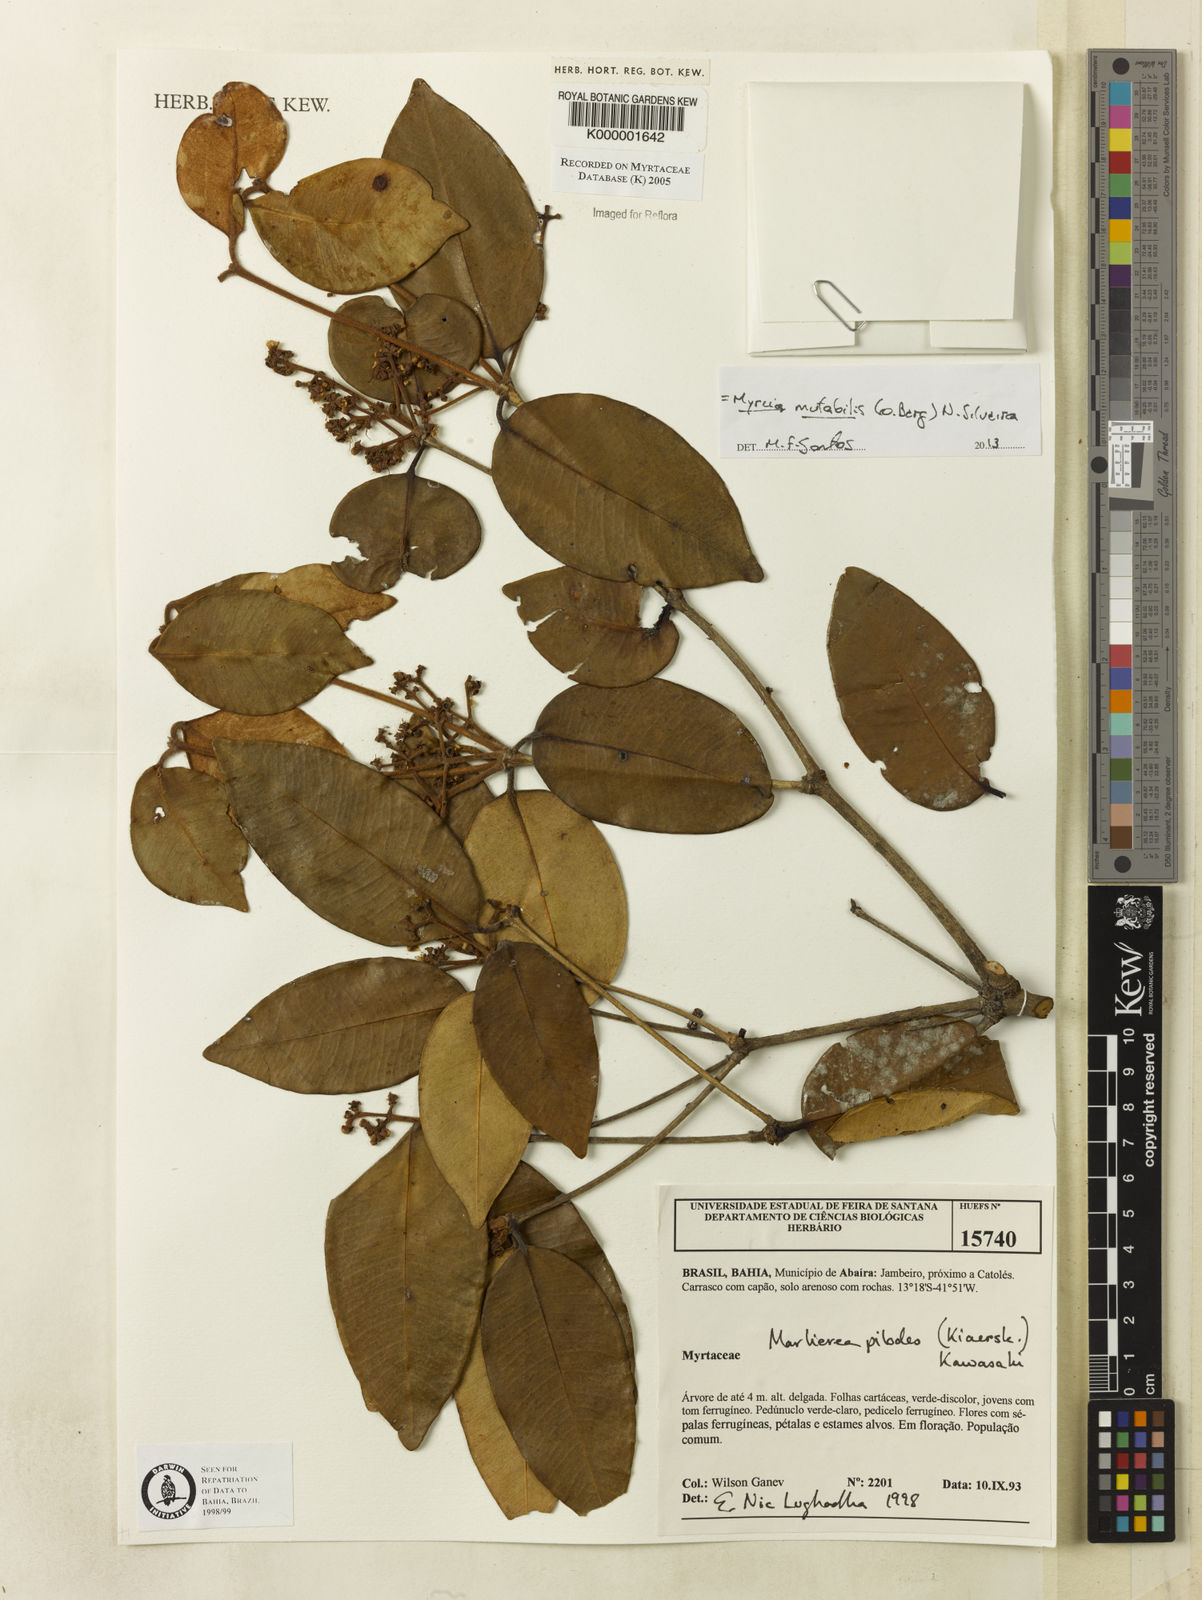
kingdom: Plantae
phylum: Tracheophyta
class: Magnoliopsida
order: Myrtales
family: Myrtaceae
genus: Myrcia
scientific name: Myrcia mutabilis
